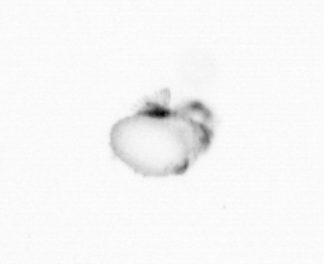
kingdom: Animalia
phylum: Annelida
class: Polychaeta
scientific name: Polychaeta
